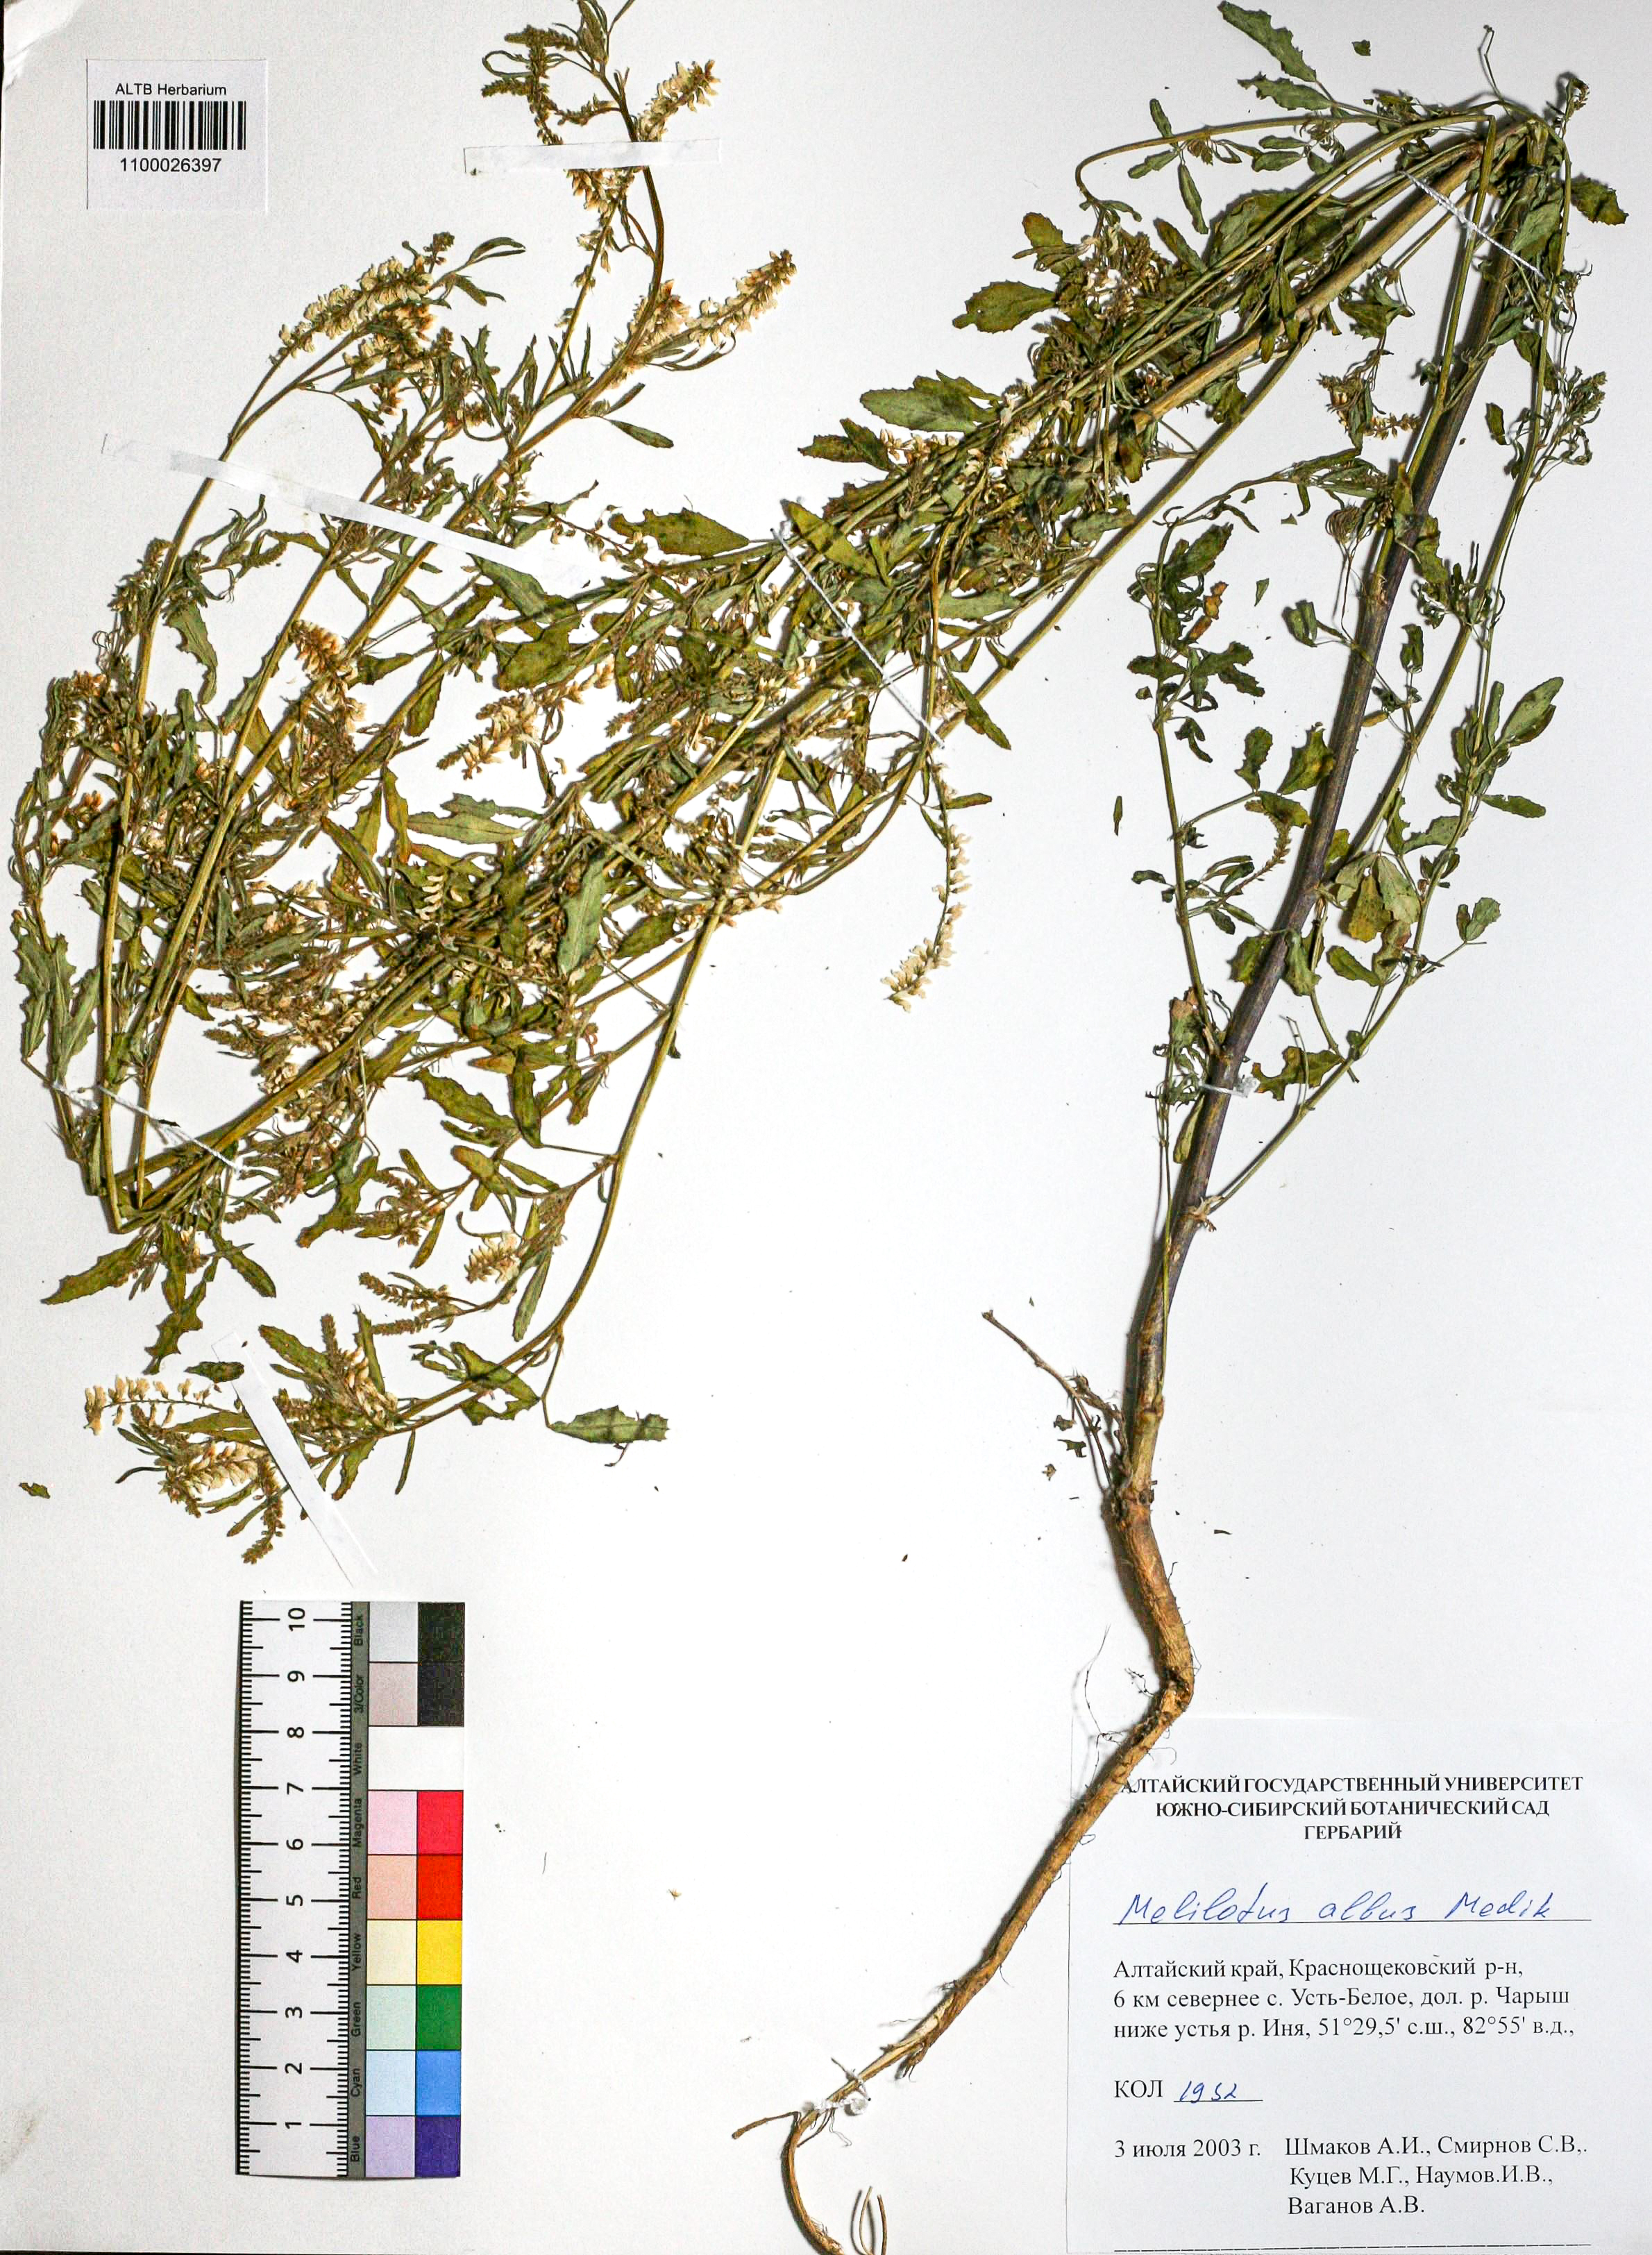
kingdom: Plantae
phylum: Tracheophyta
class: Magnoliopsida
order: Fabales
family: Fabaceae
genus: Melilotus
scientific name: Melilotus albus
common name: White melilot
